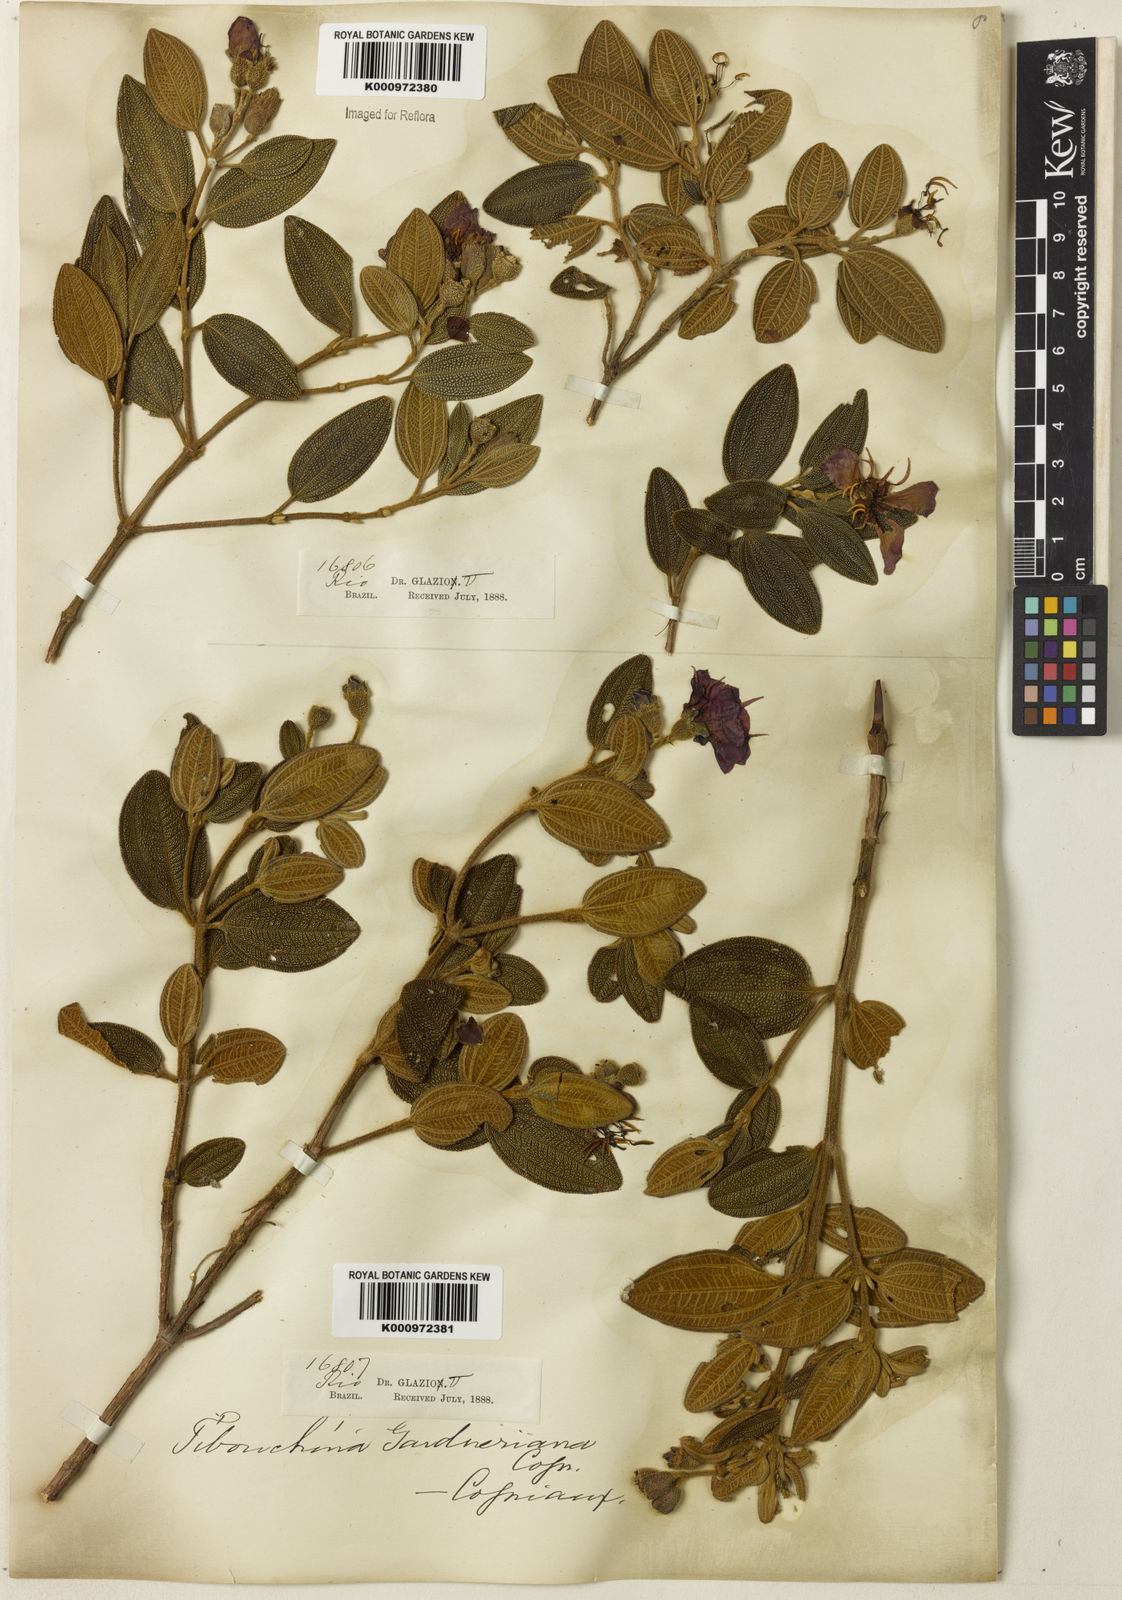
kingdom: Plantae
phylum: Tracheophyta
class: Magnoliopsida
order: Myrtales
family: Melastomataceae
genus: Pleroma
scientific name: Pleroma echinatum
